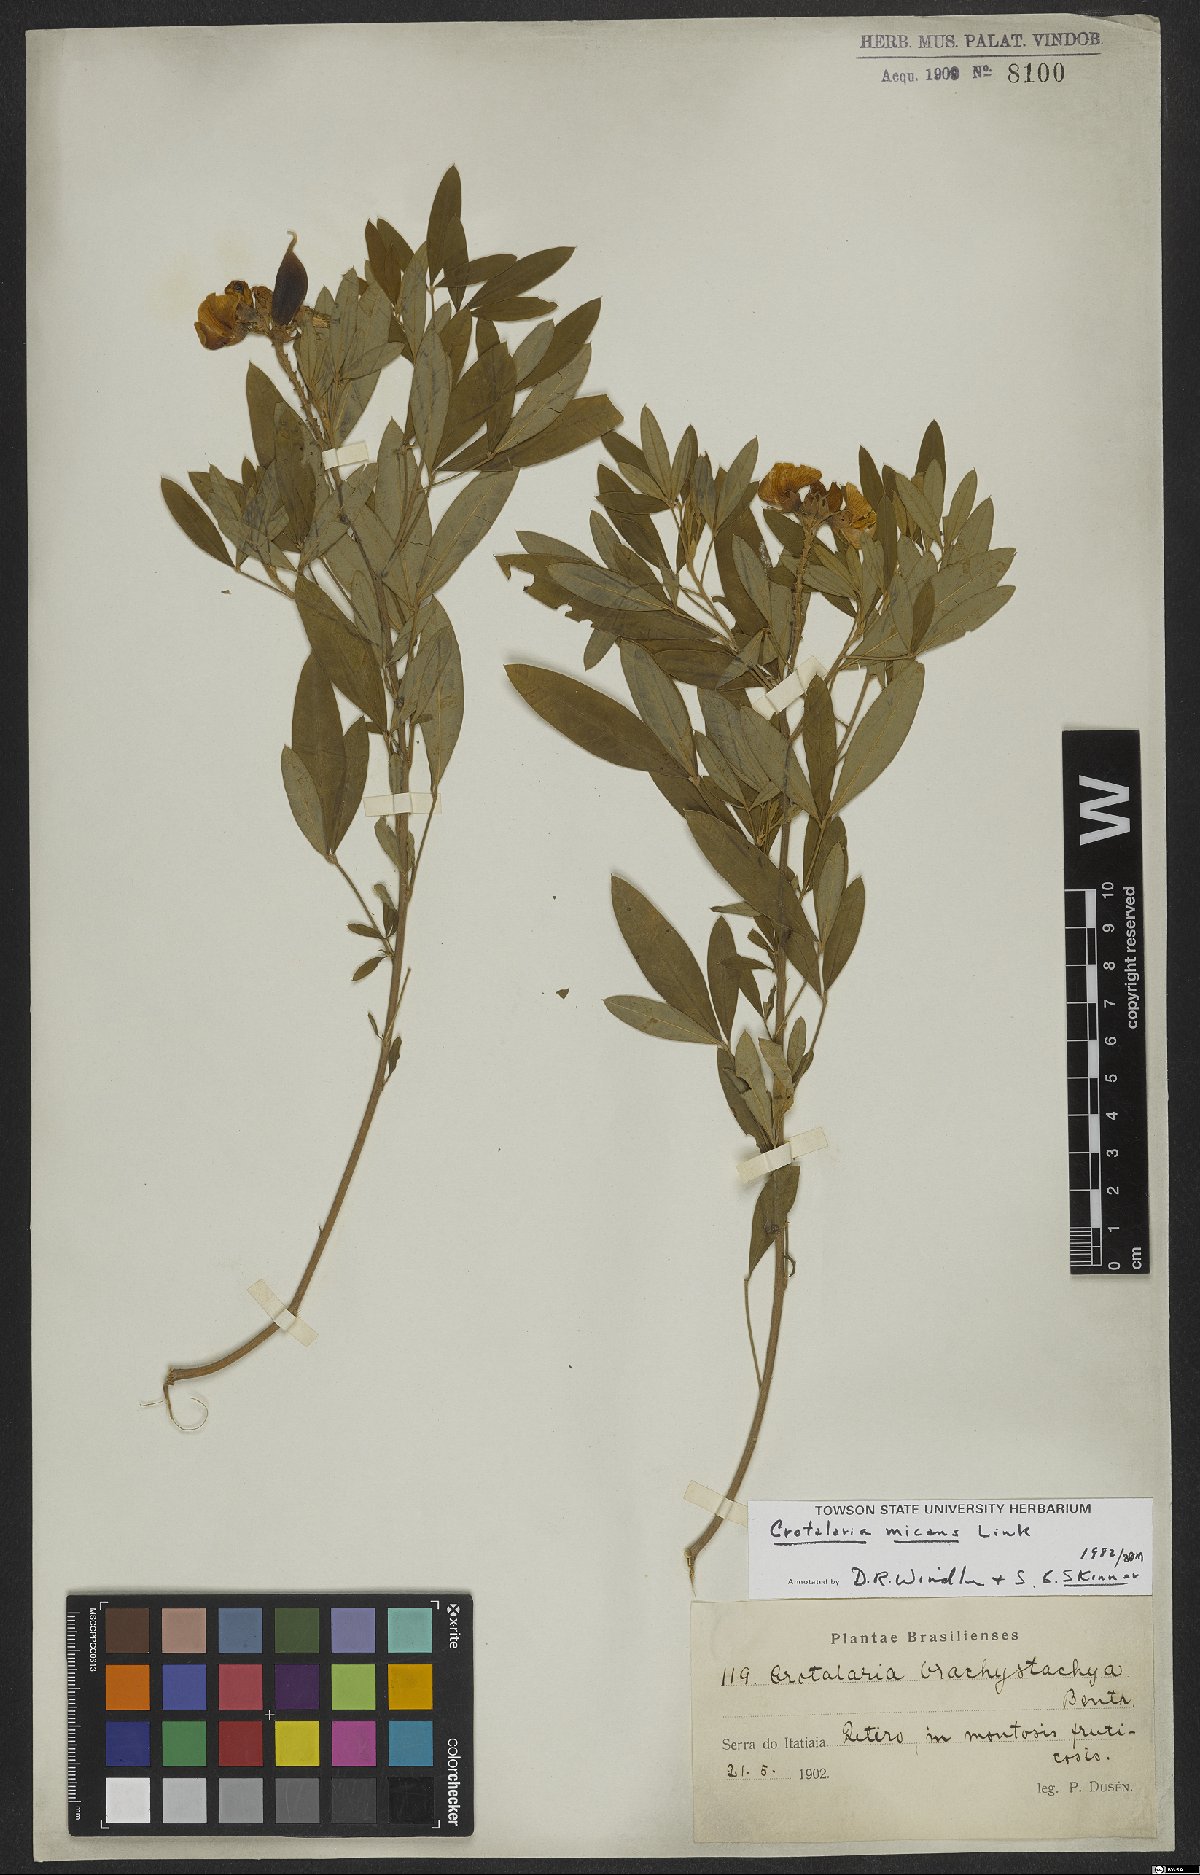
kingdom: Plantae
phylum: Tracheophyta
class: Magnoliopsida
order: Fabales
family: Fabaceae
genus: Crotalaria
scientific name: Crotalaria micans
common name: Caracas rattlebox
